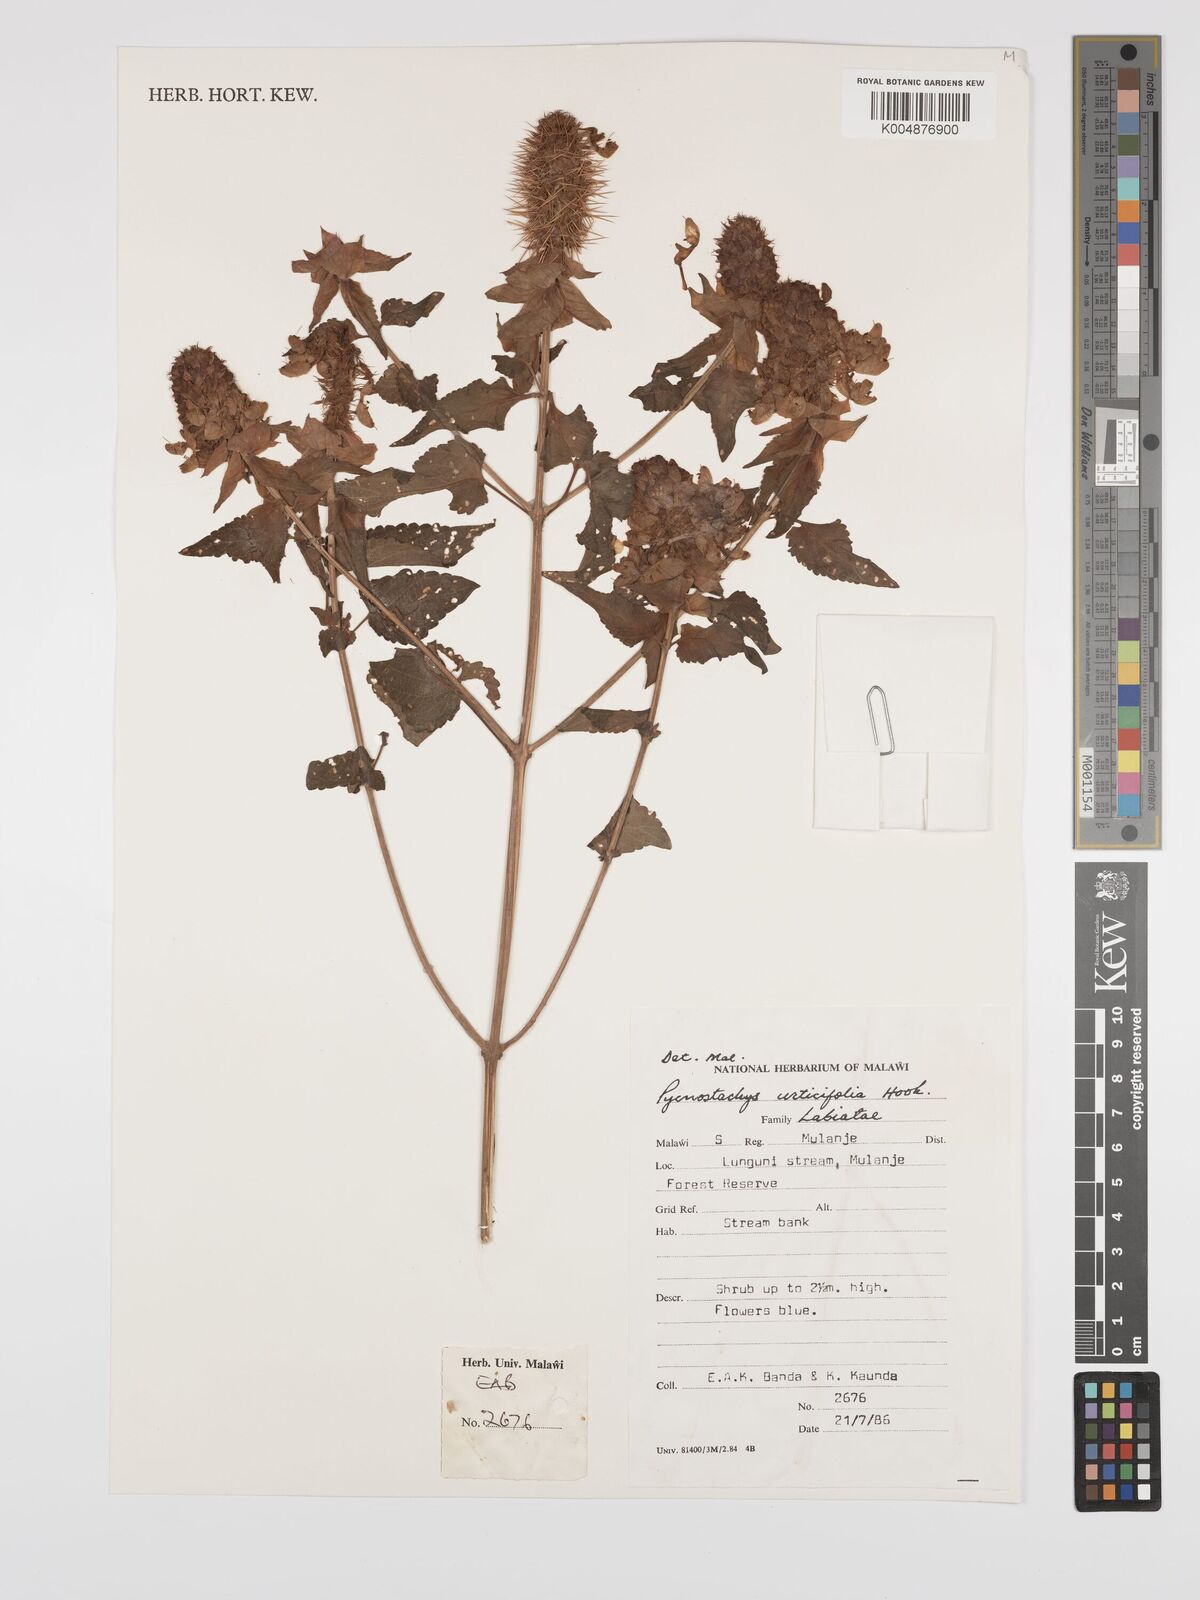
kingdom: Plantae
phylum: Tracheophyta
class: Magnoliopsida
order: Lamiales
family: Lamiaceae
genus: Coleus
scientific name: Coleus livingstonei
